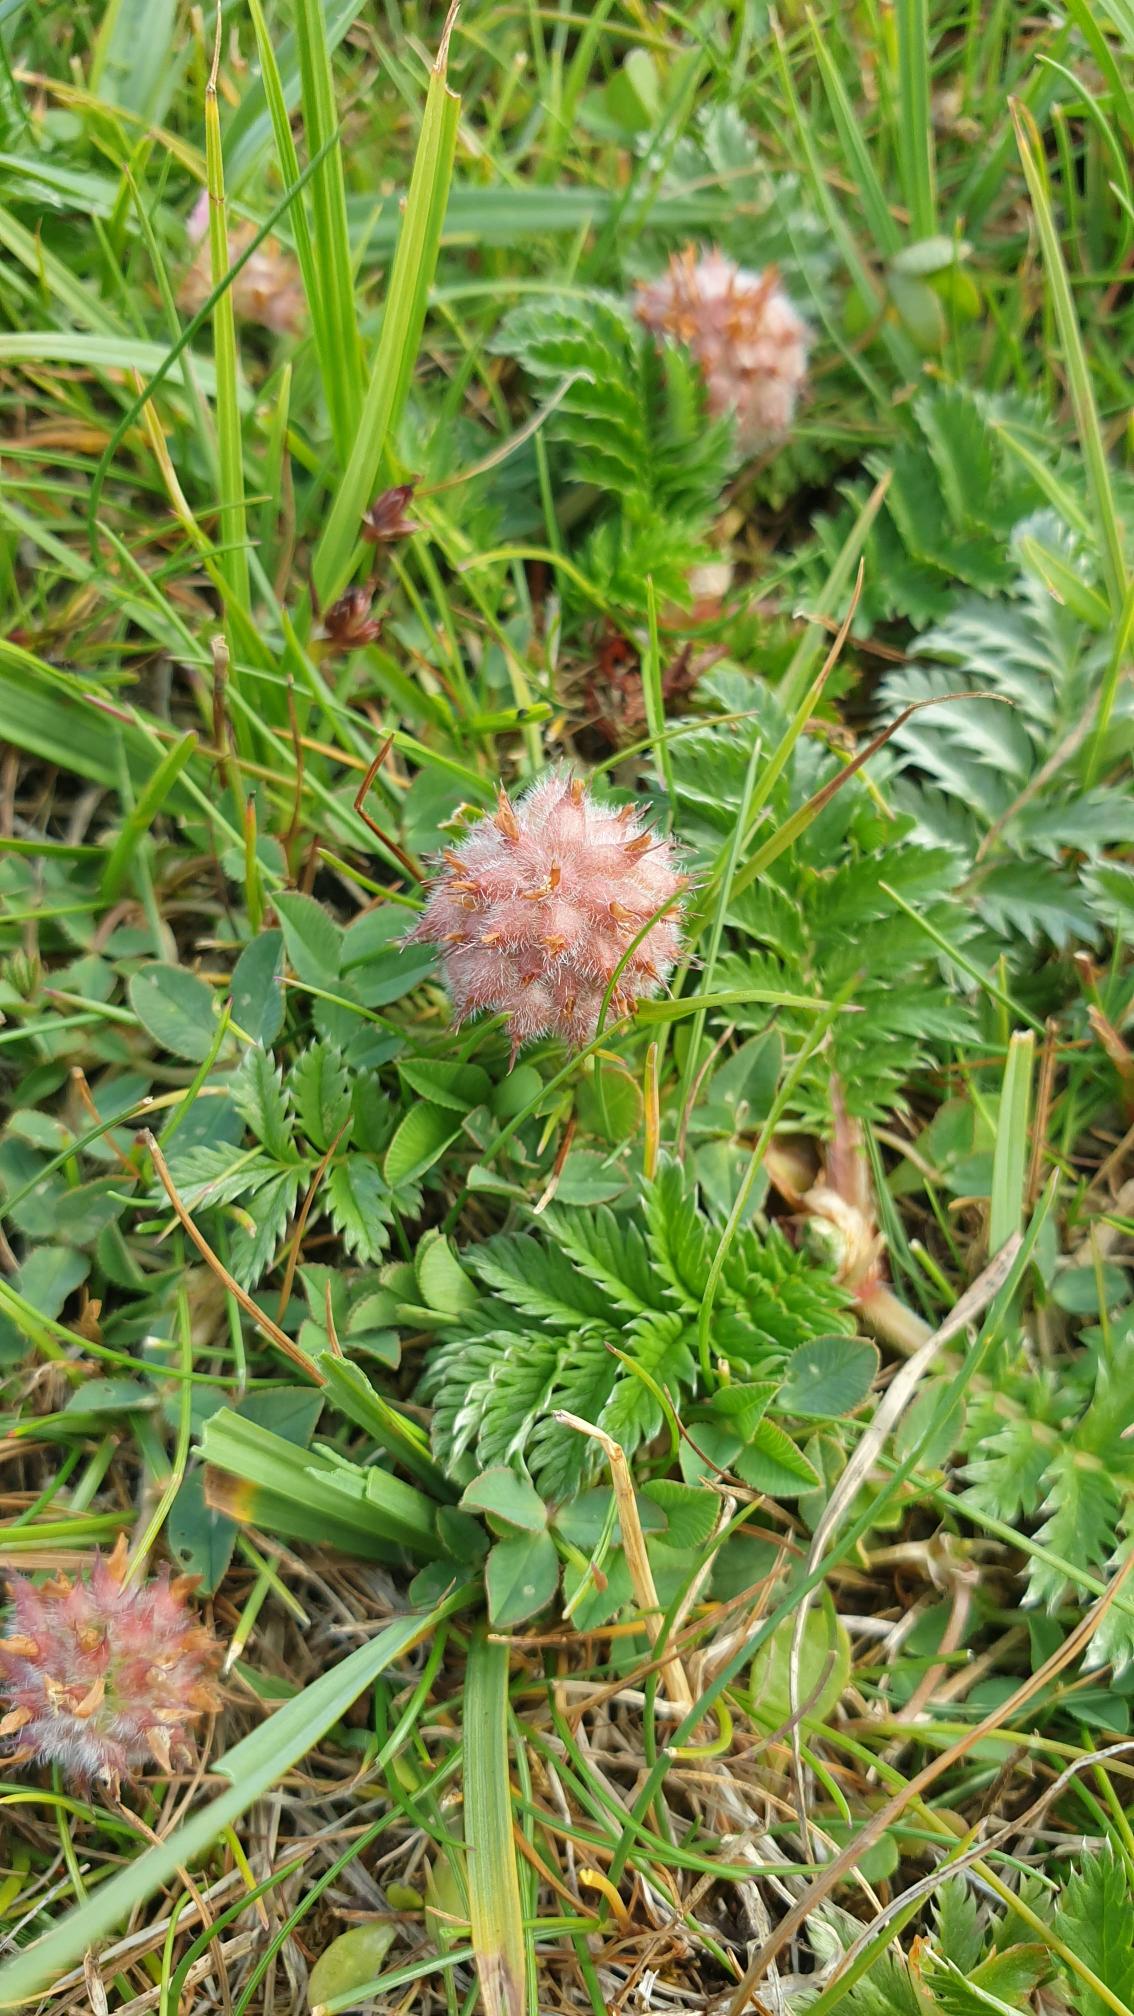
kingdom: Plantae
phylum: Tracheophyta
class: Magnoliopsida
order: Fabales
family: Fabaceae
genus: Trifolium
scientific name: Trifolium fragiferum
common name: Jordbær-kløver
